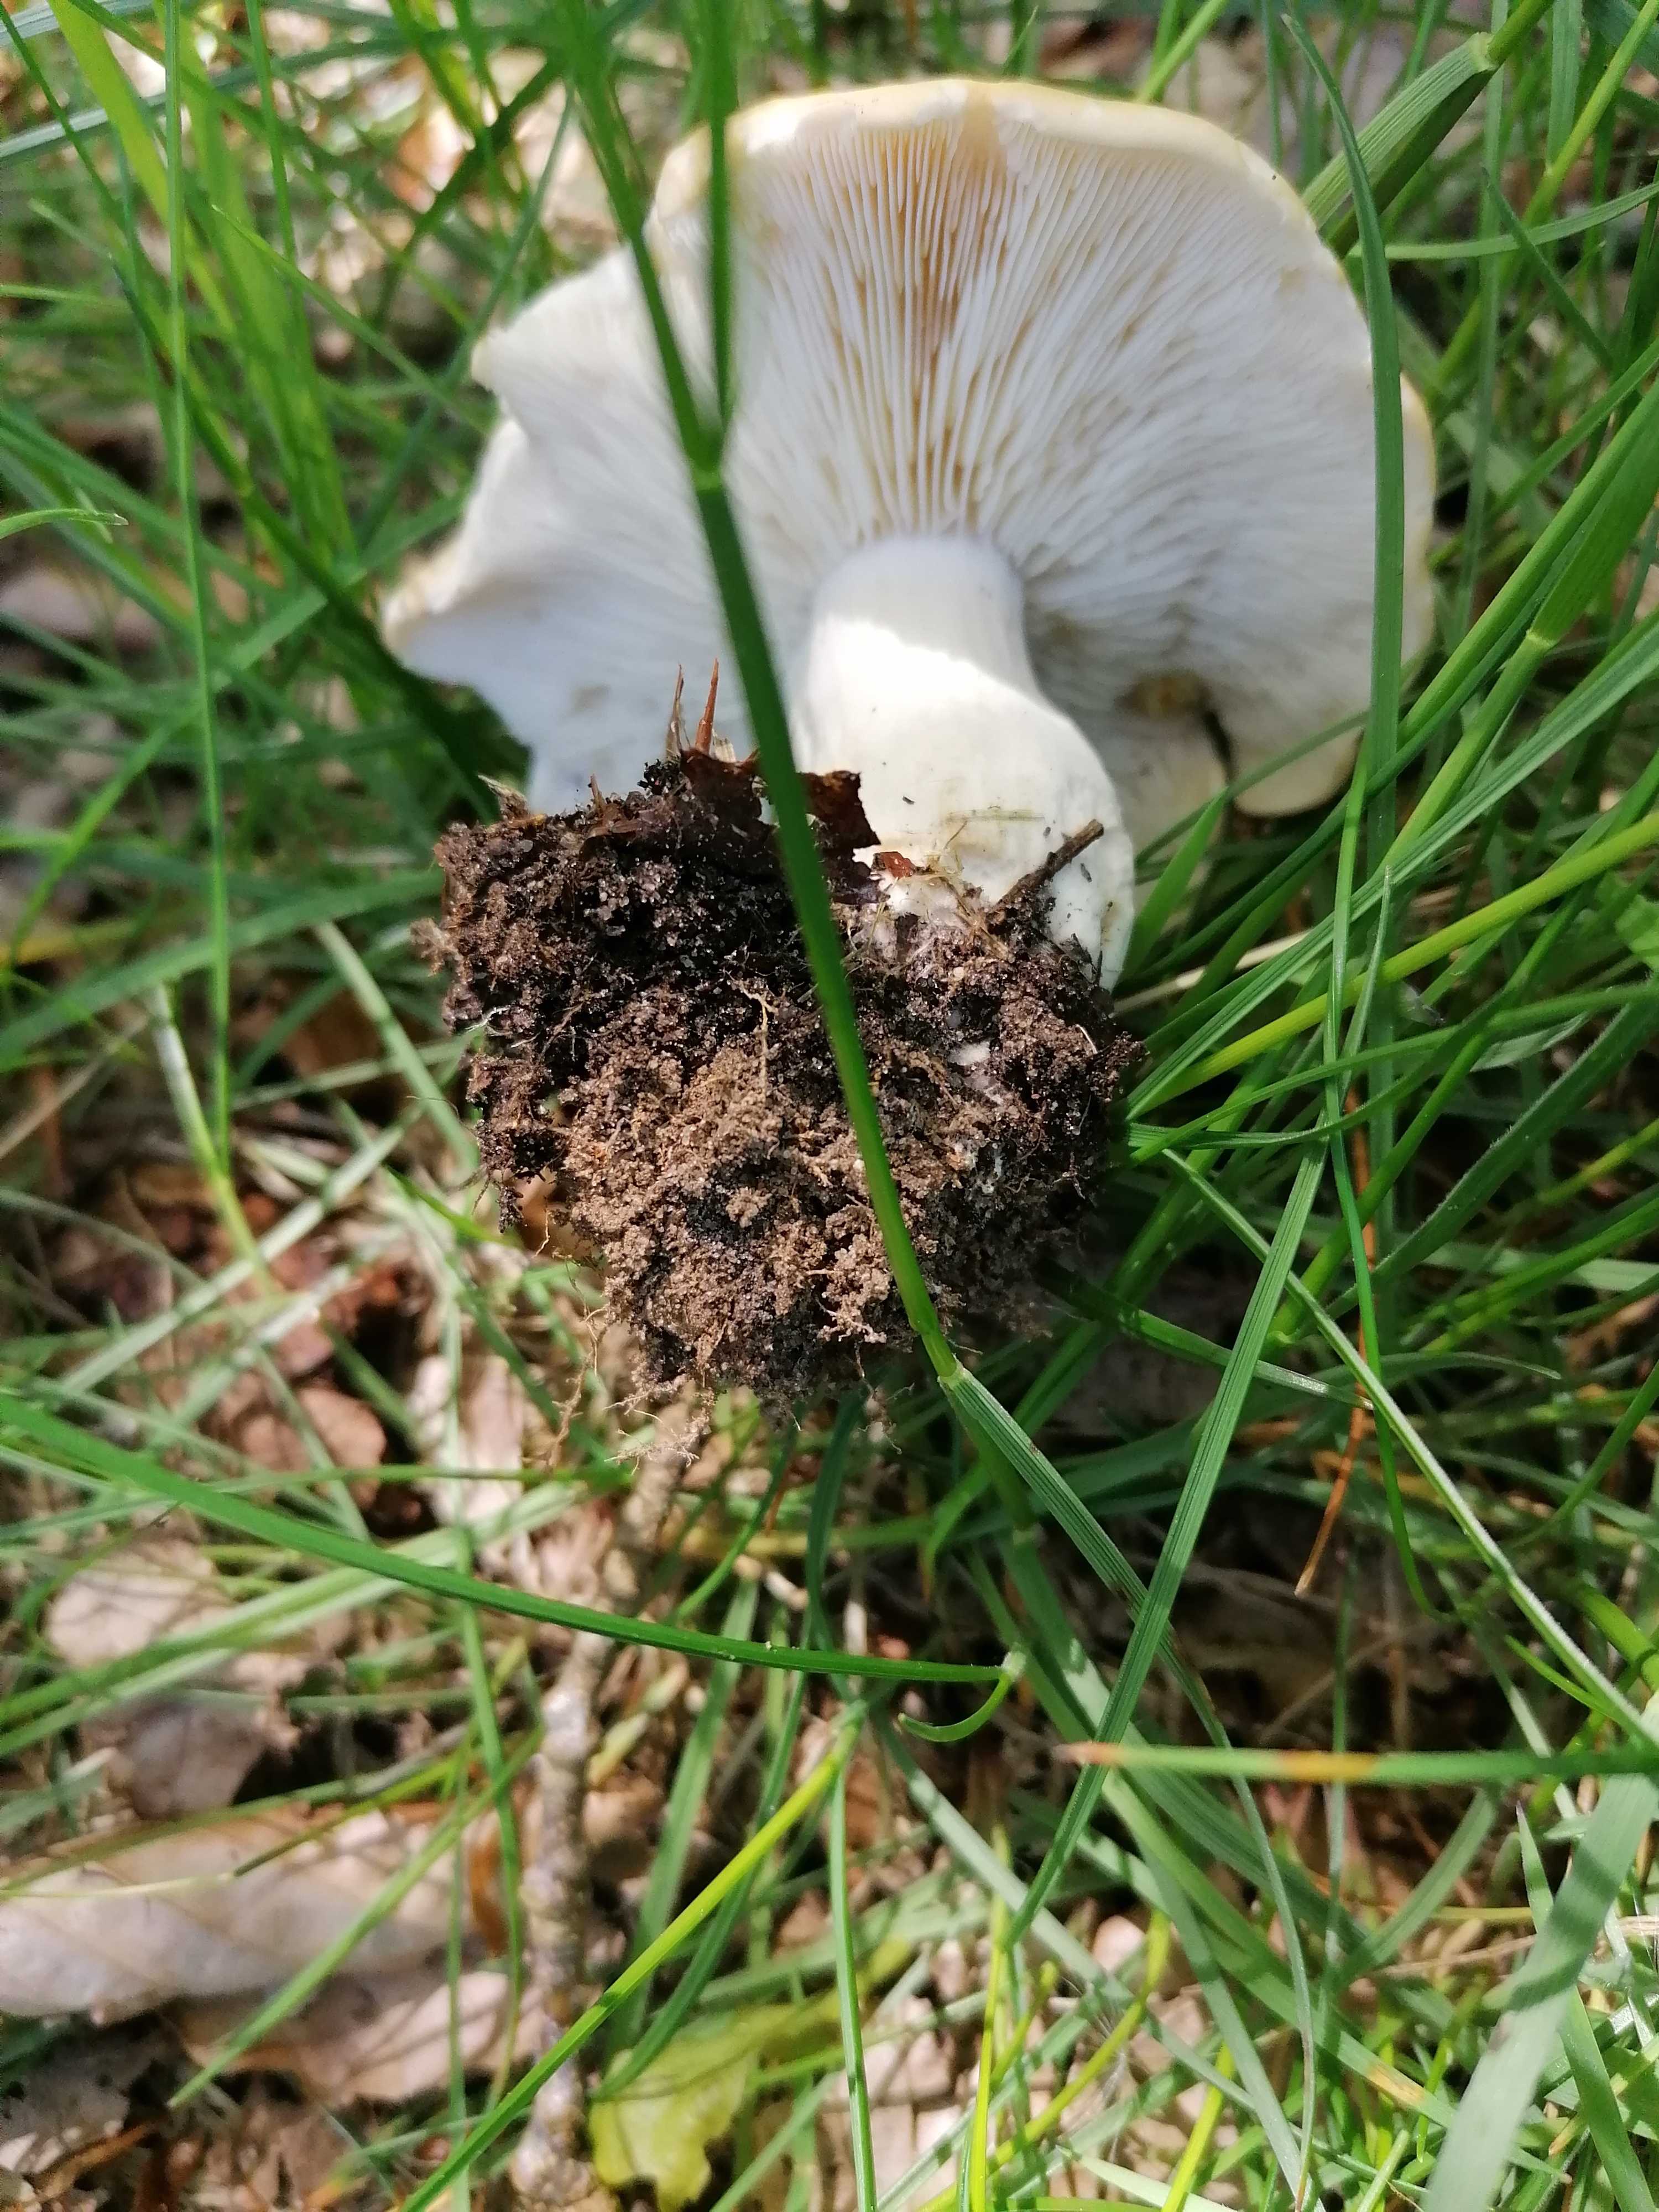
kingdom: Fungi
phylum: Basidiomycota
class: Agaricomycetes
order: Agaricales
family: Lyophyllaceae
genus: Calocybe
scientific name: Calocybe gambosa
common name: vårmusseron
